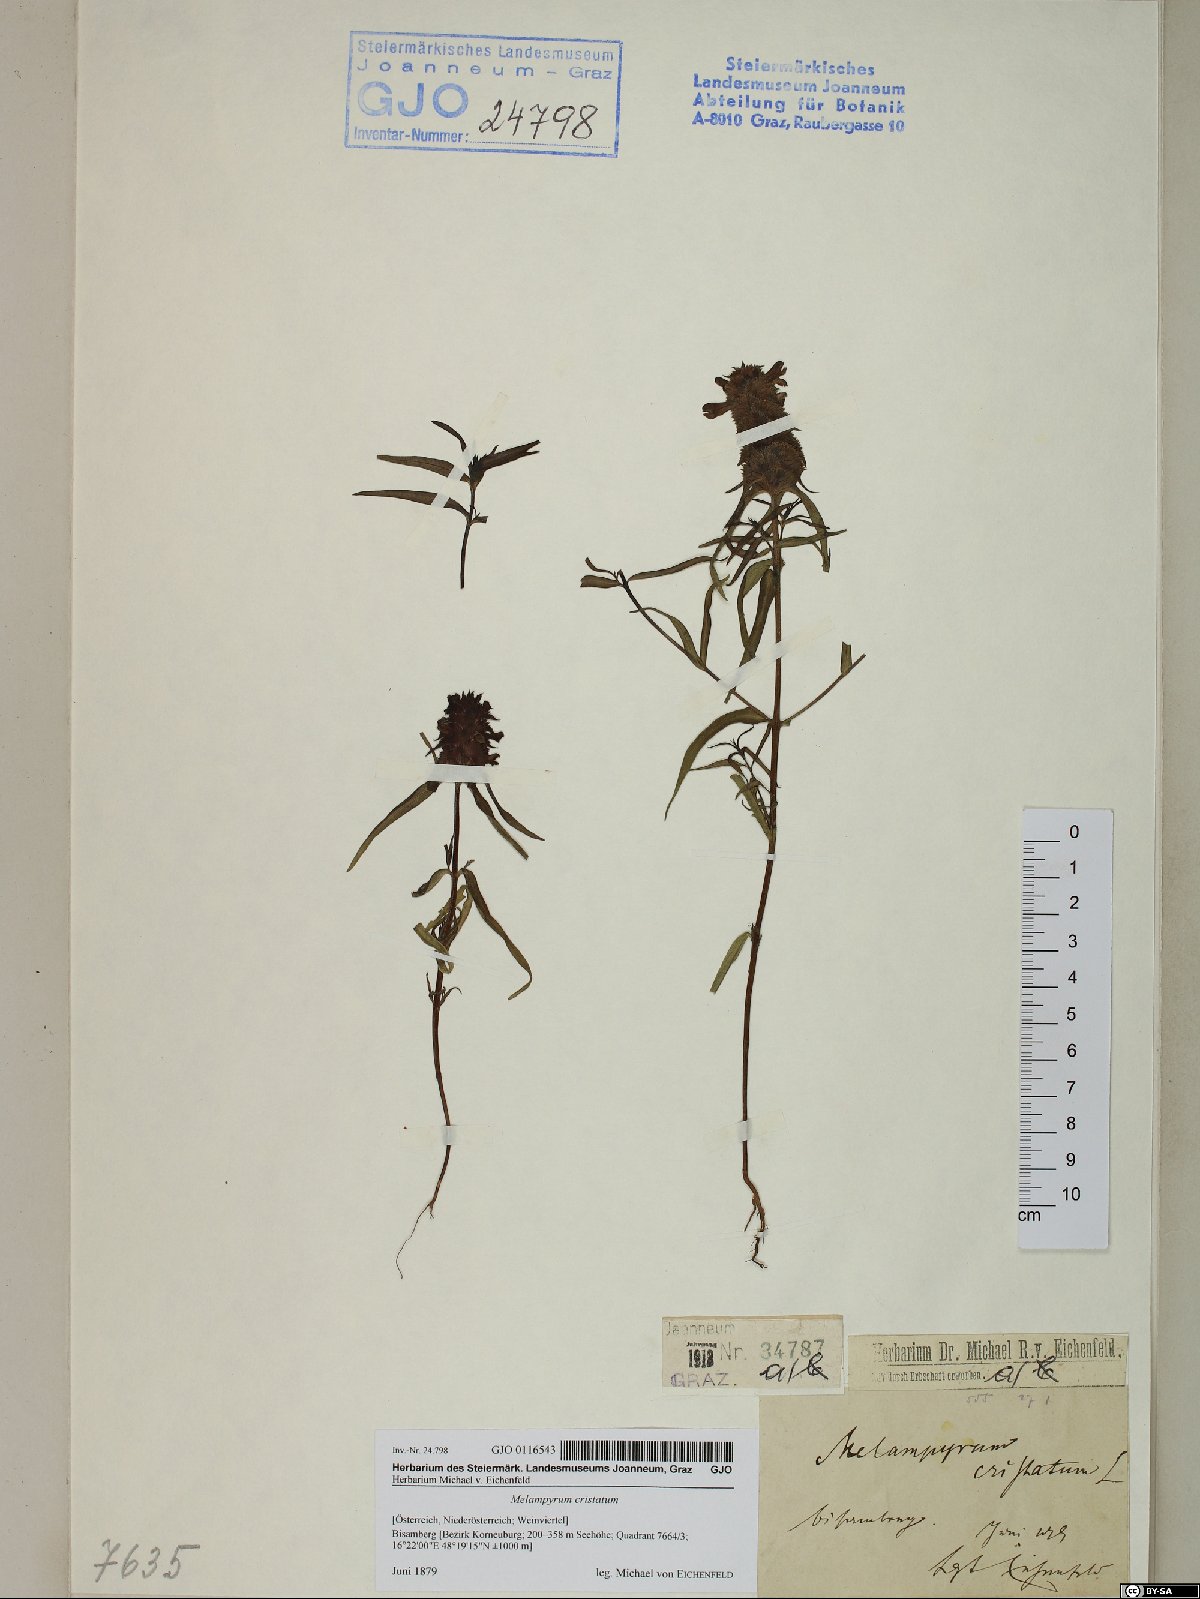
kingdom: Plantae
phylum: Tracheophyta
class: Magnoliopsida
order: Lamiales
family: Orobanchaceae
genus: Melampyrum
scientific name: Melampyrum cristatum
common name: Crested cow-wheat
